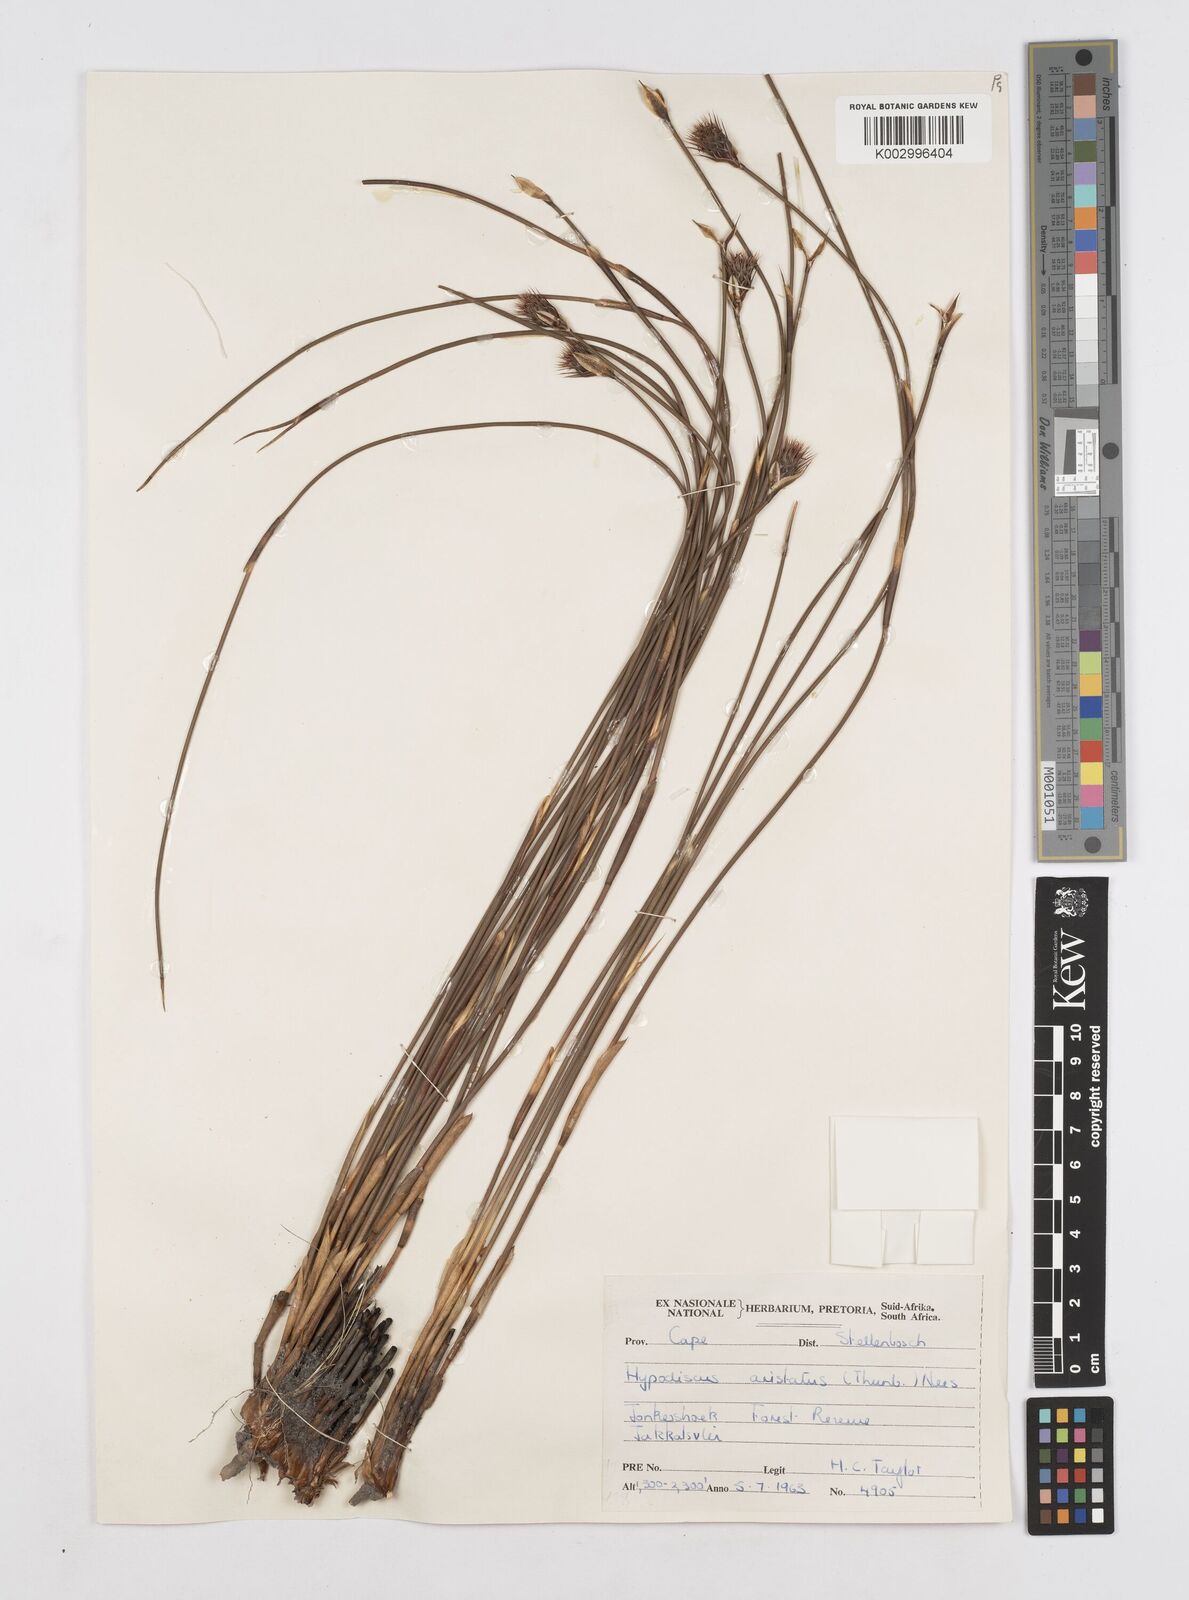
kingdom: Plantae
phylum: Tracheophyta
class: Liliopsida
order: Poales
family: Restionaceae
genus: Hypodiscus
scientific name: Hypodiscus aristatus
